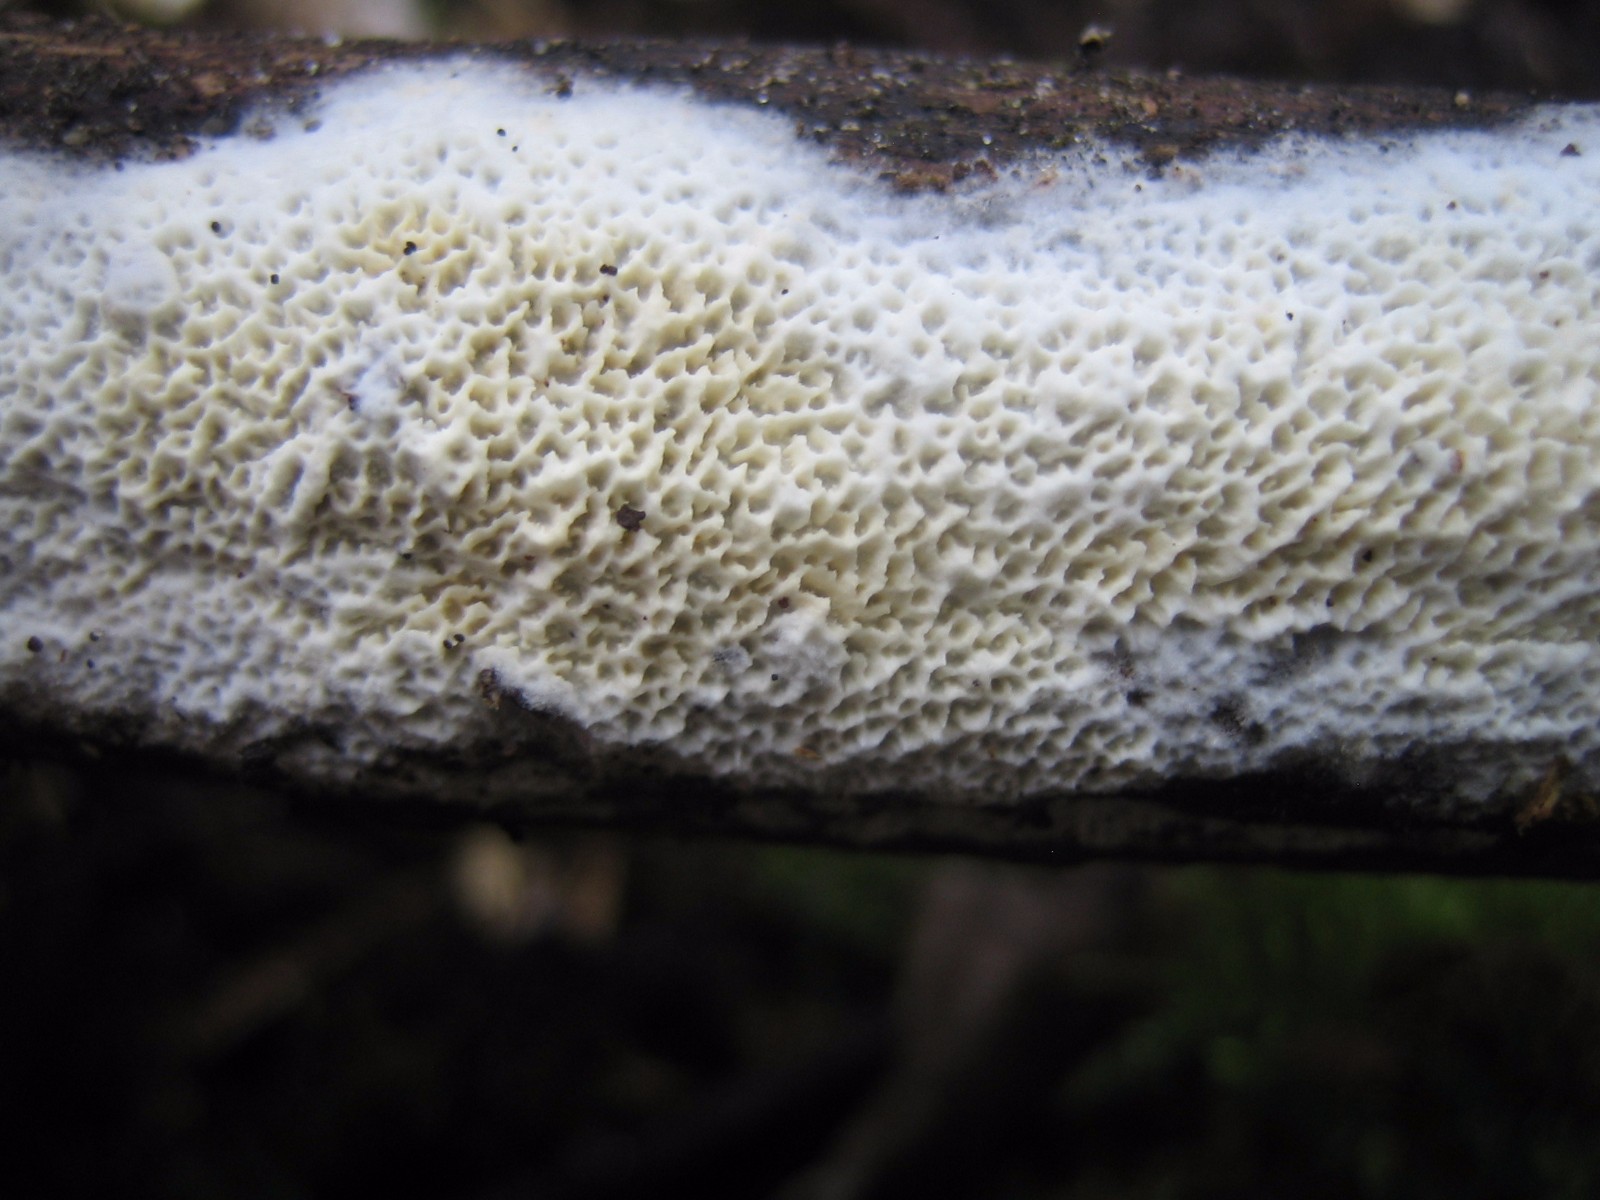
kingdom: Fungi
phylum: Basidiomycota
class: Agaricomycetes
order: Polyporales
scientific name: Polyporales
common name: poresvampordenen
